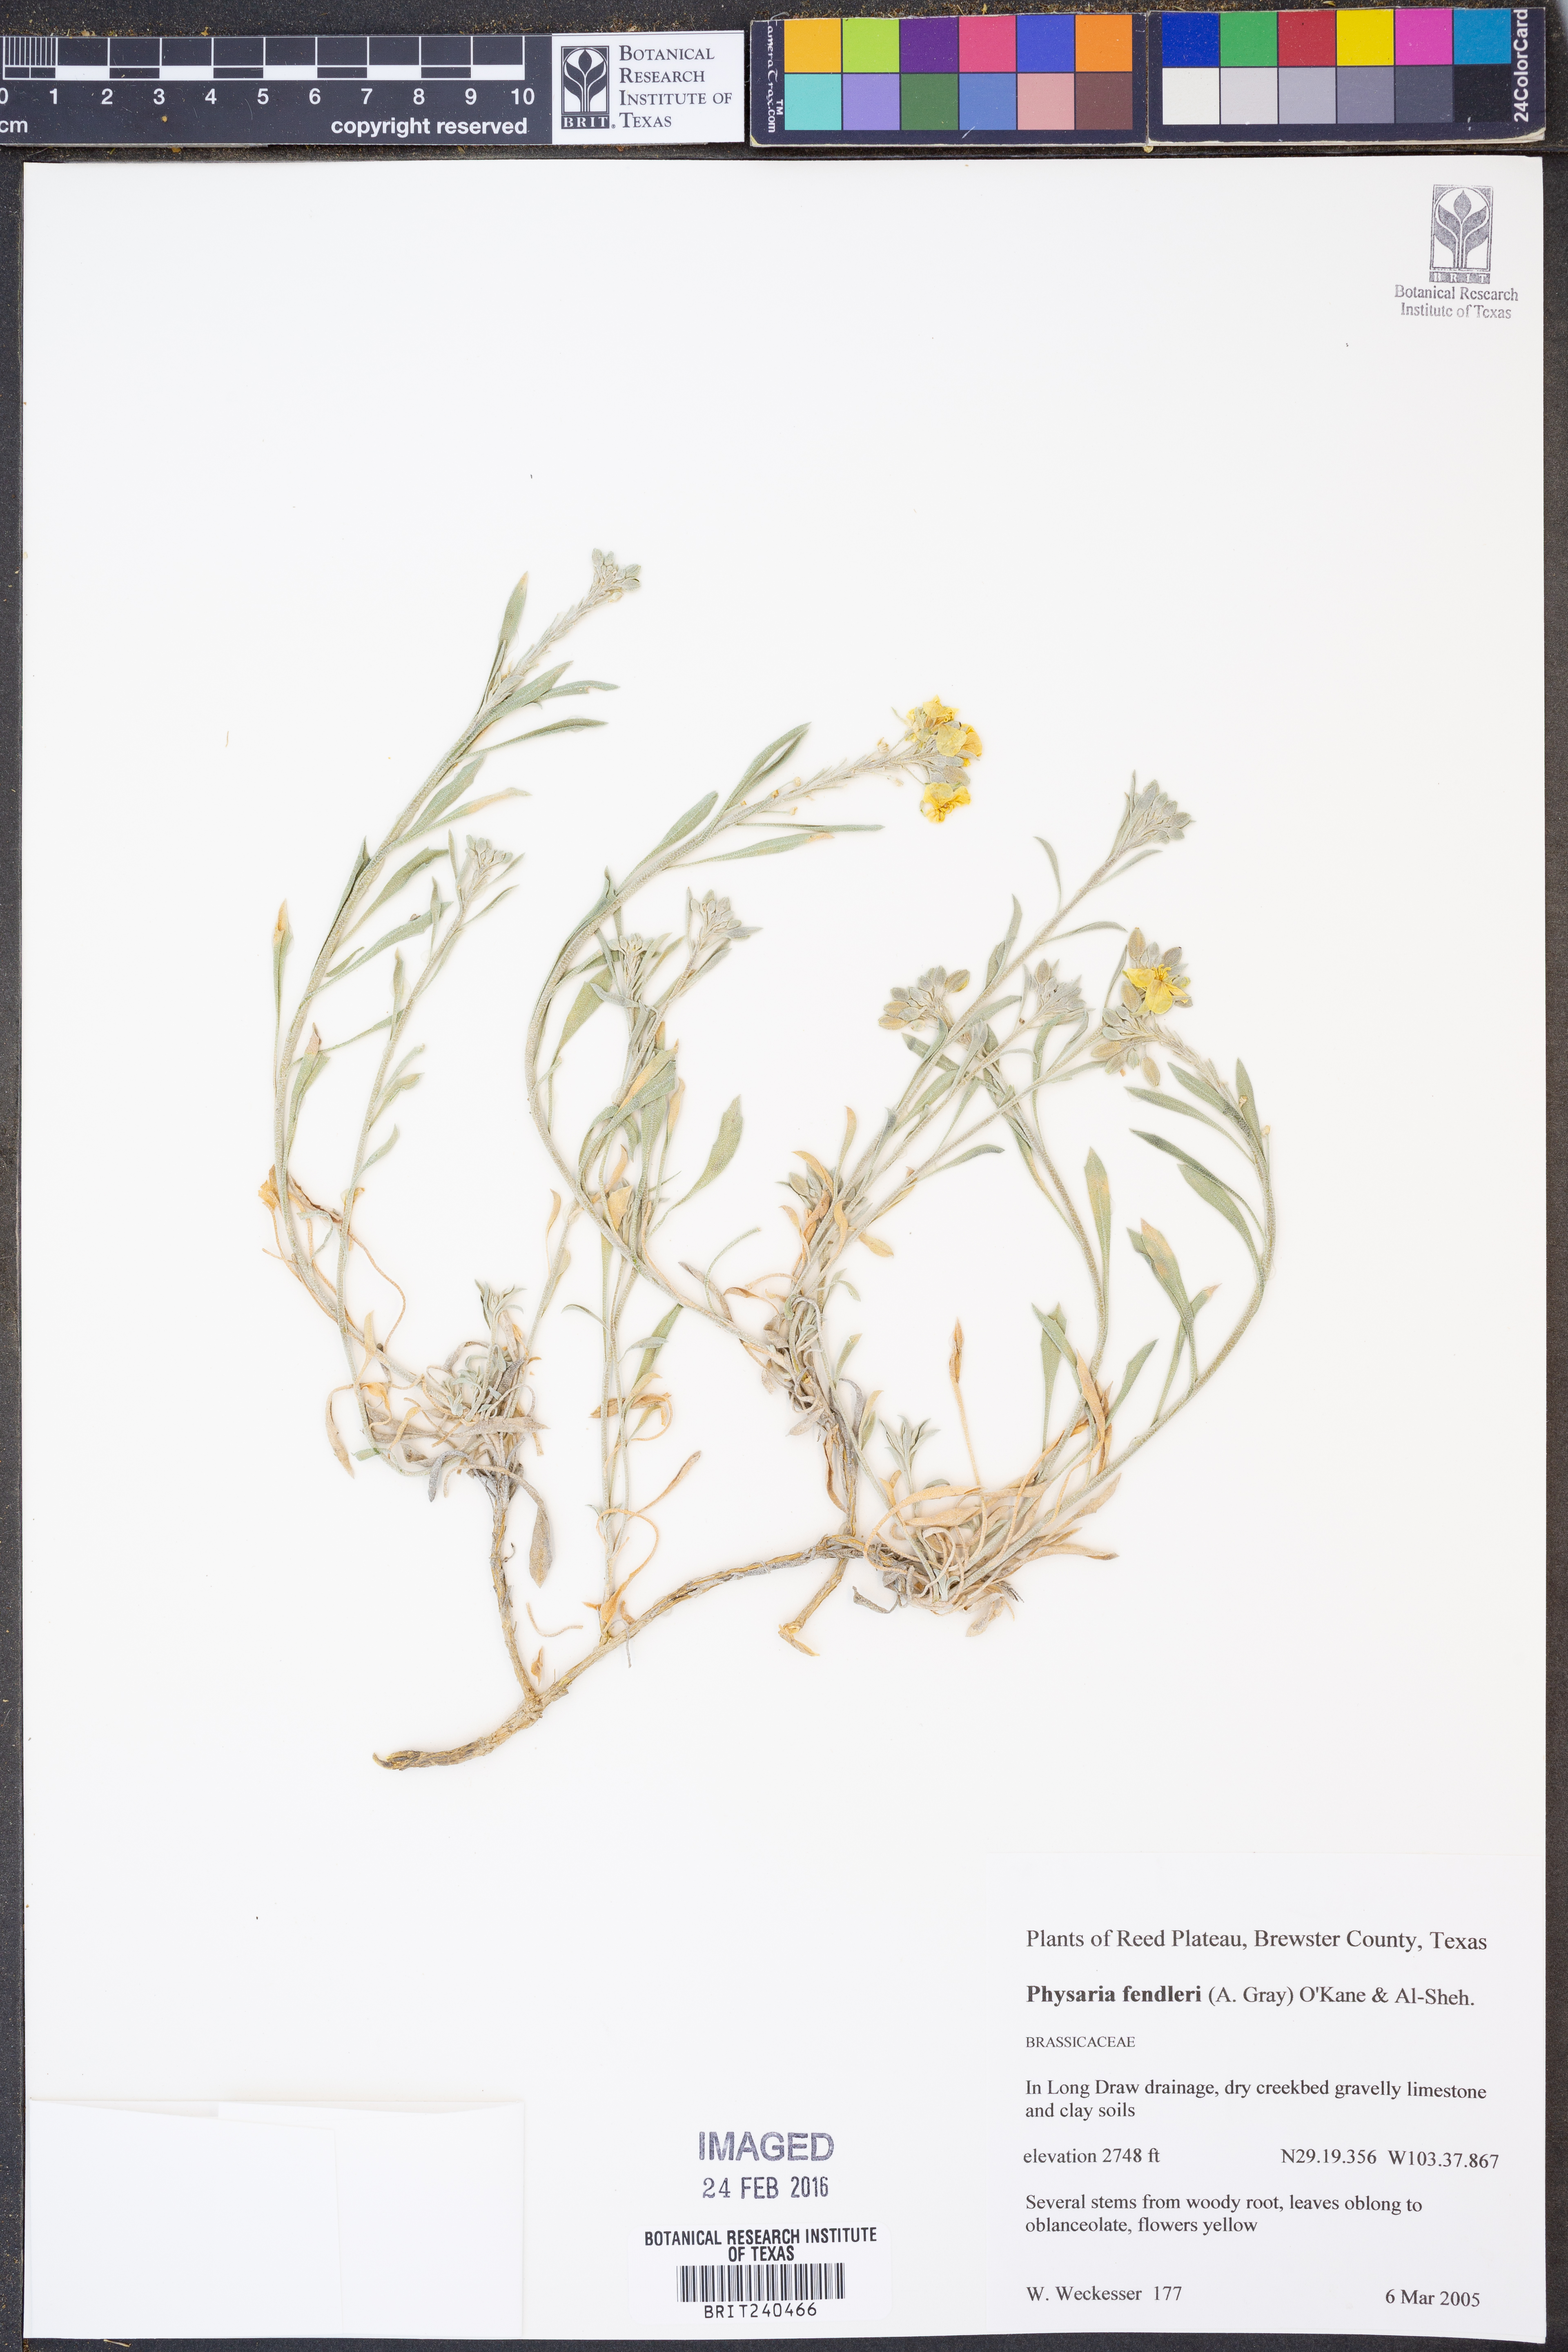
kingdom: Plantae
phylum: Tracheophyta
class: Magnoliopsida
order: Brassicales
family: Brassicaceae
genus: Physaria
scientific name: Physaria fendleri
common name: Fendler's bladderpod
